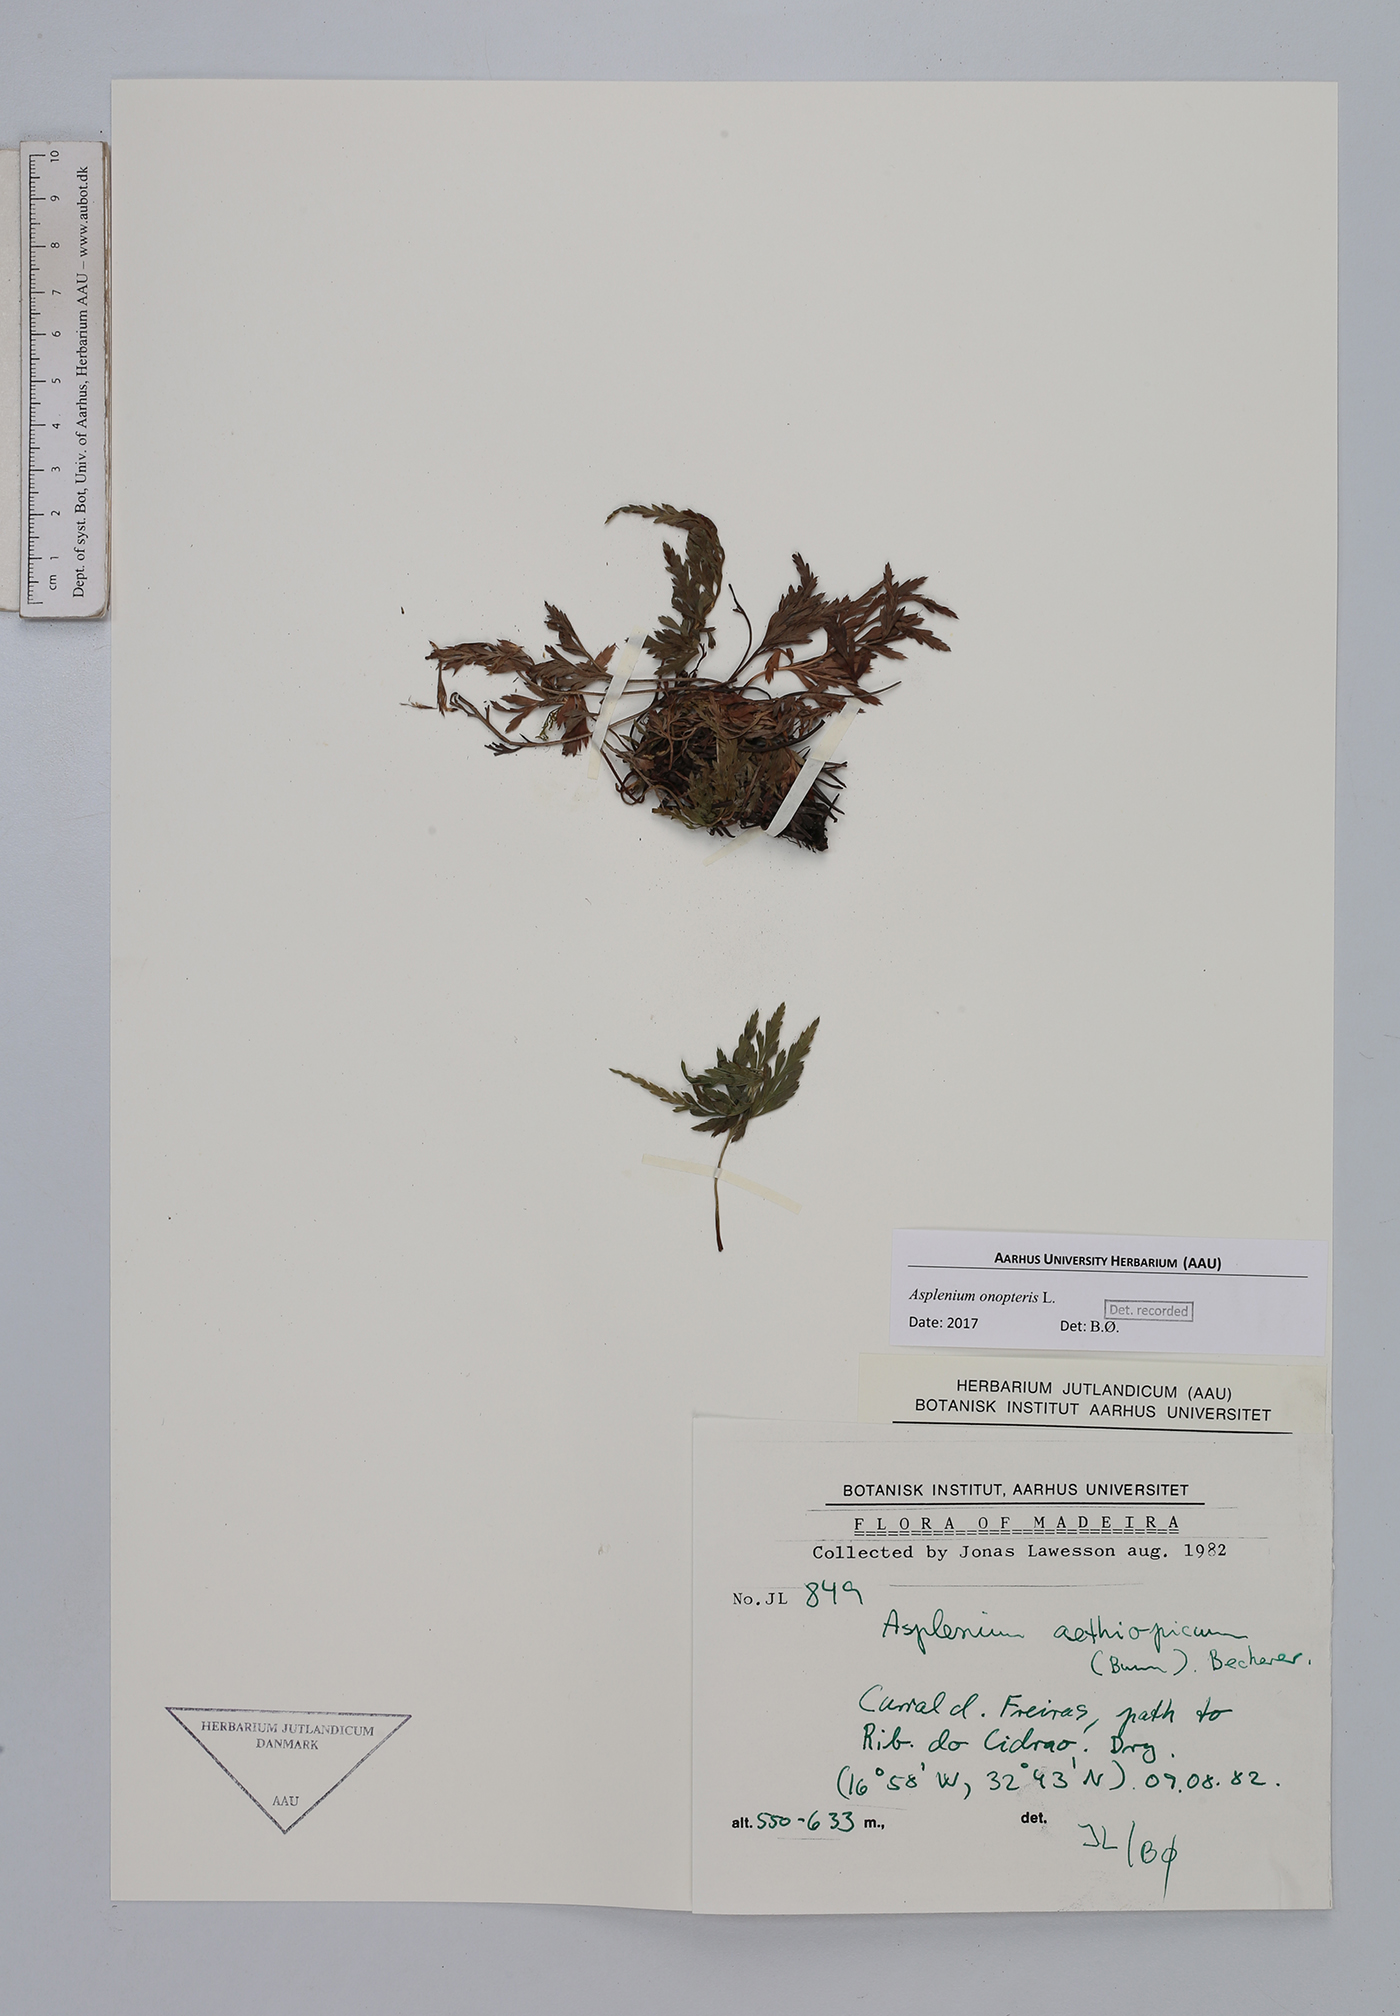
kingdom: Plantae
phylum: Tracheophyta
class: Polypodiopsida
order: Polypodiales
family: Aspleniaceae
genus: Asplenium
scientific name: Asplenium onopteris
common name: Irish spleenwort
